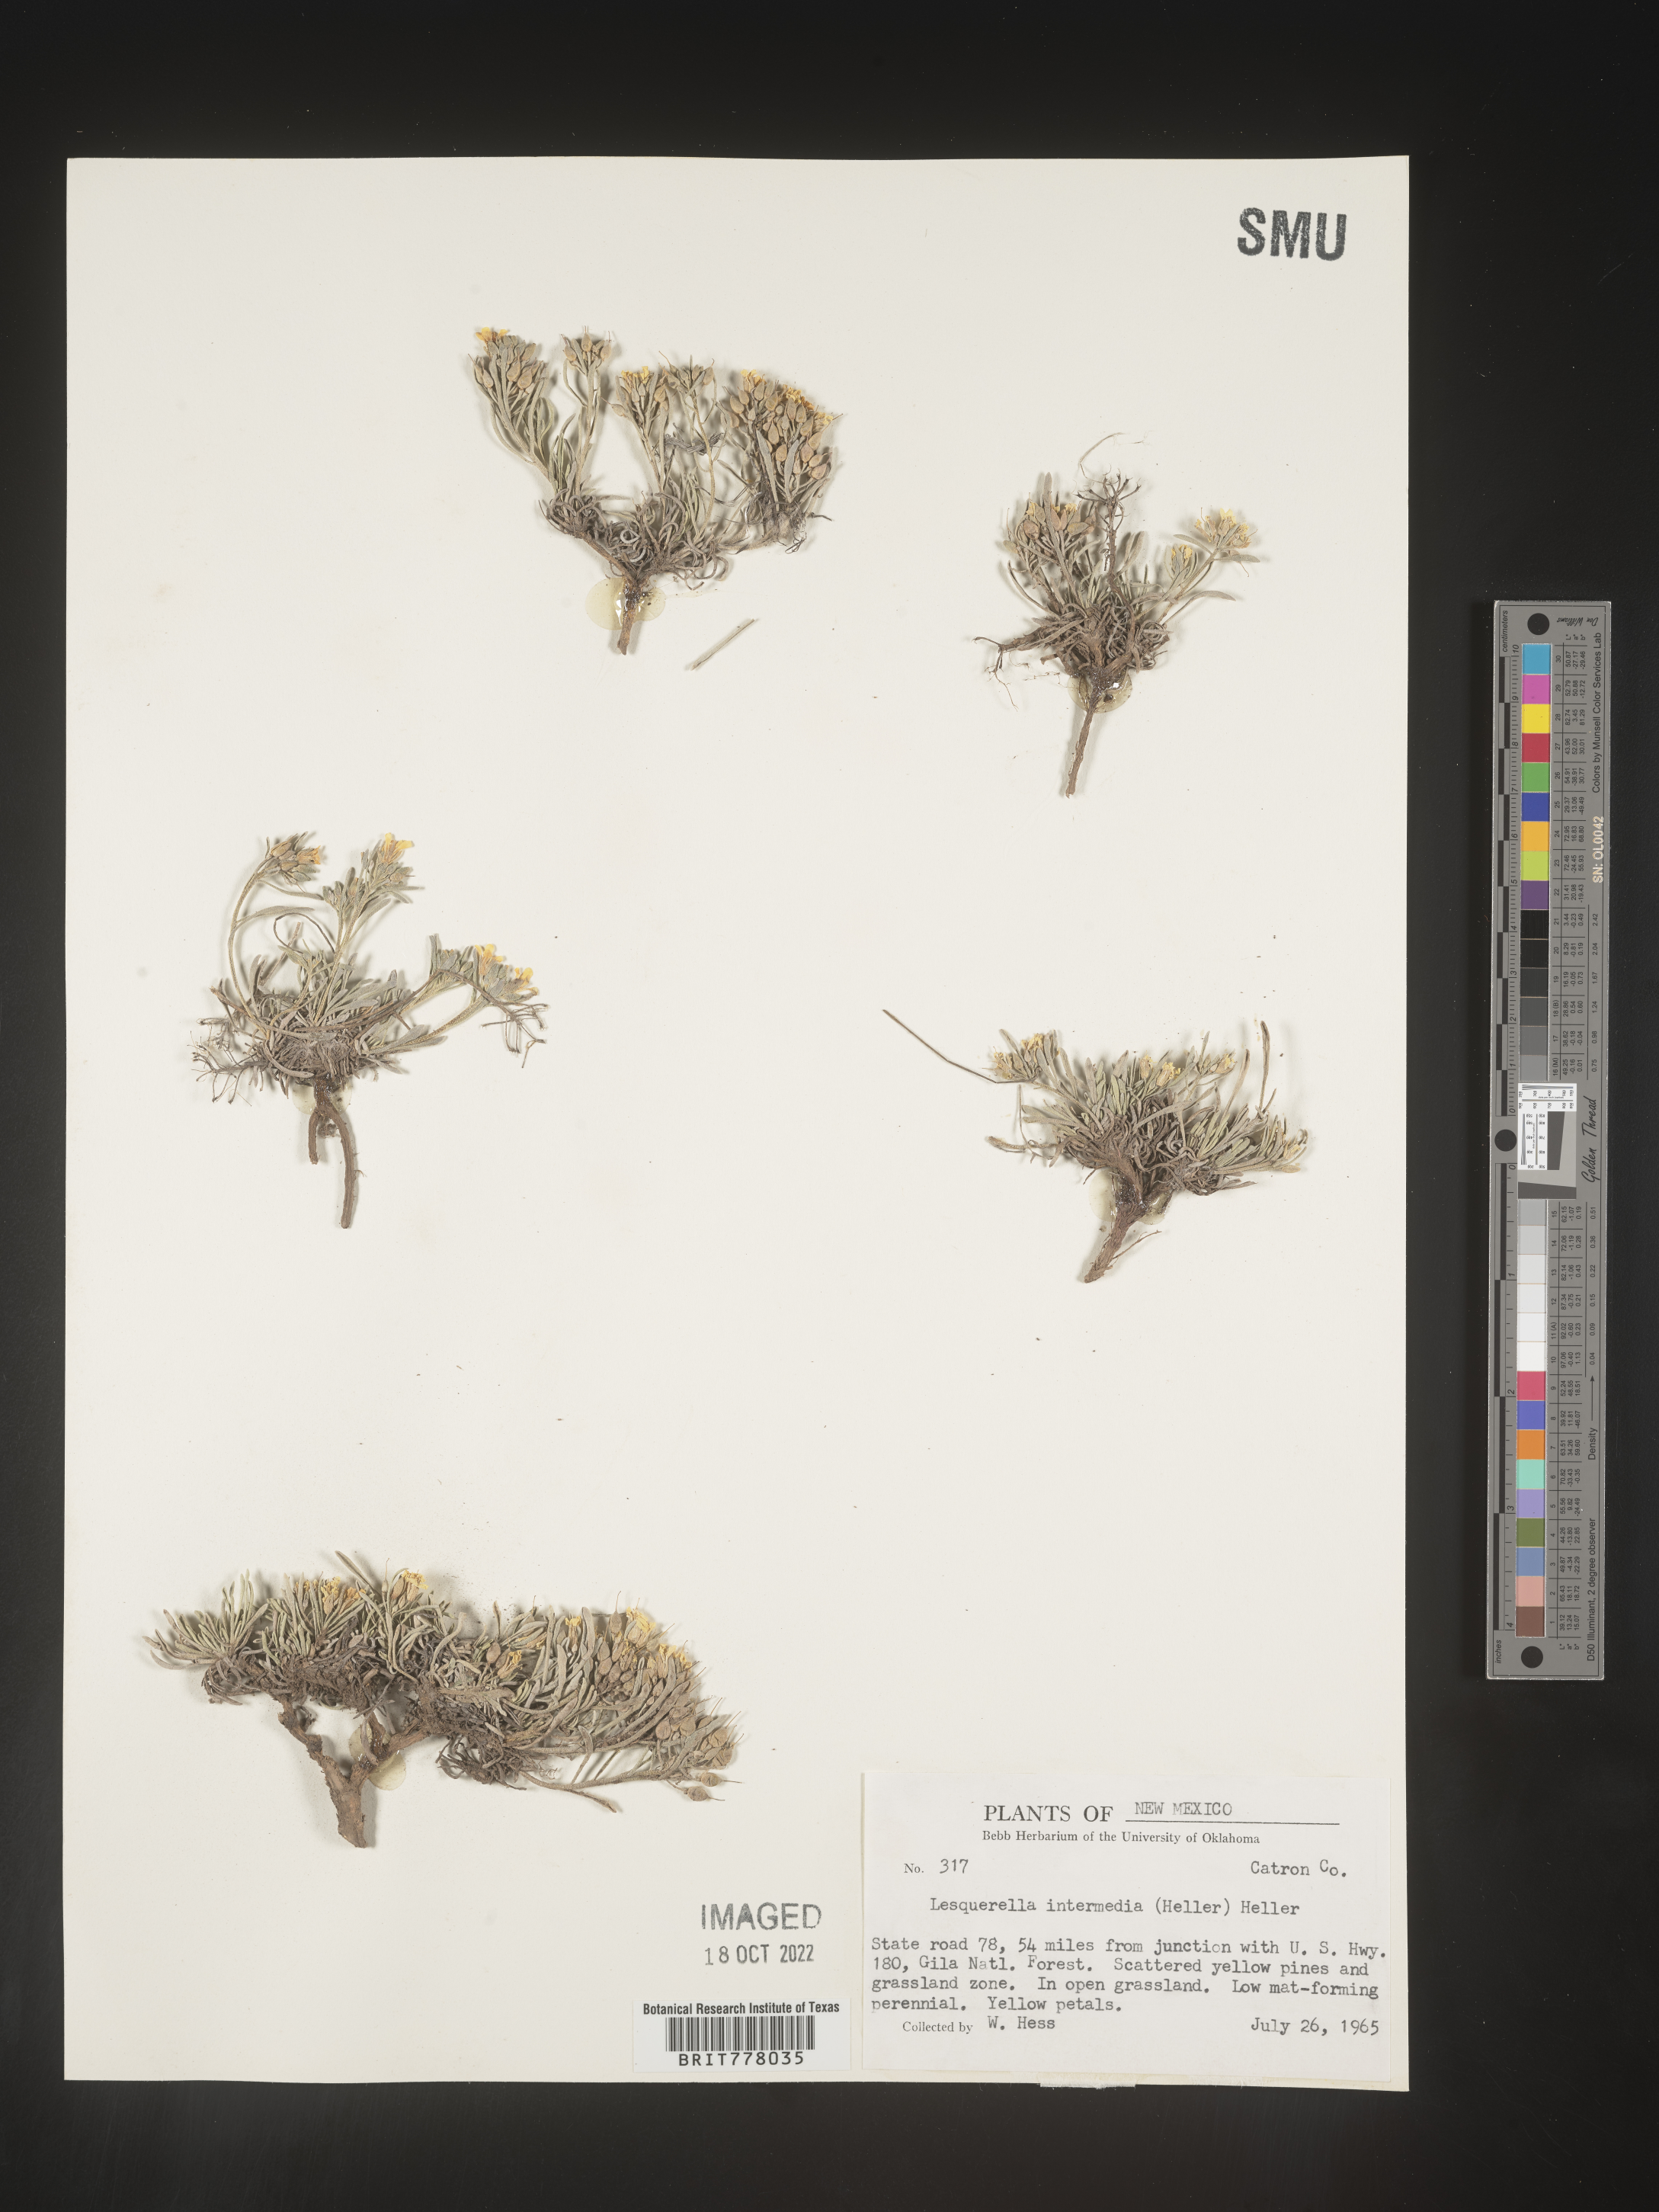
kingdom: Chromista
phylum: Cercozoa
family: Psammonobiotidae
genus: Lesquerella
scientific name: Lesquerella
